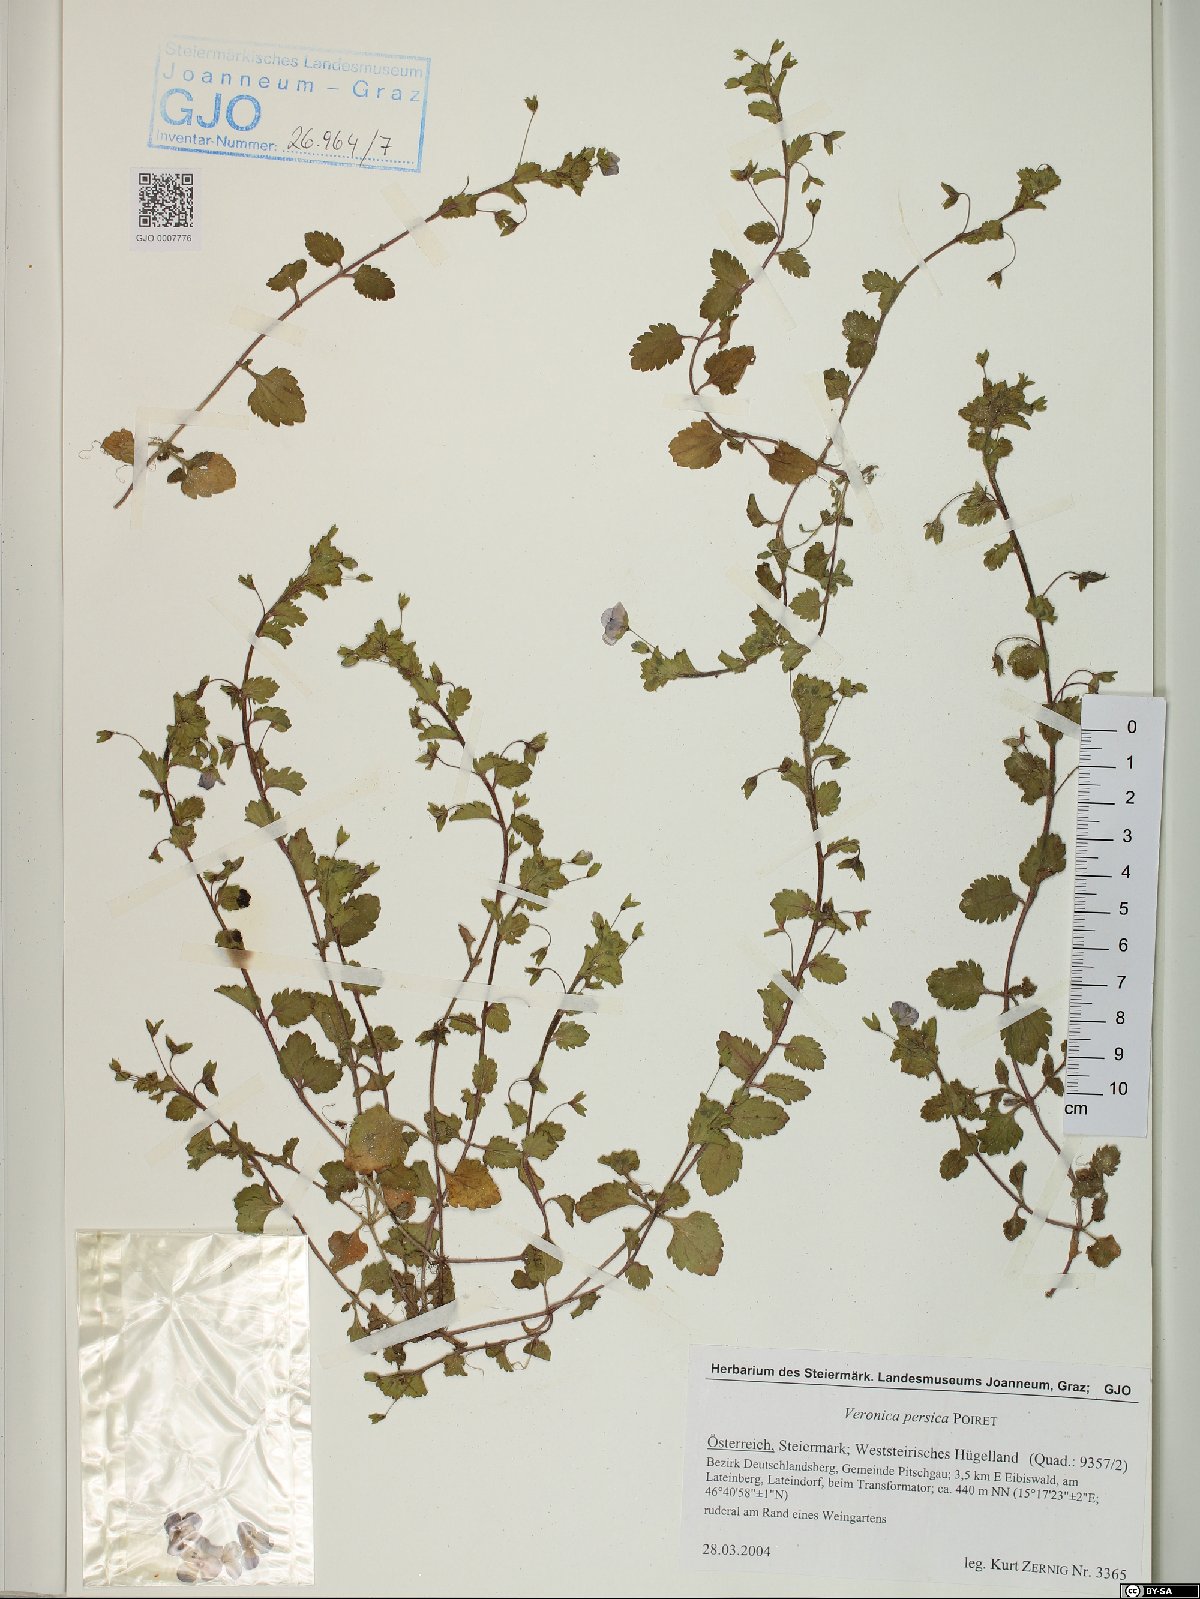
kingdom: Plantae
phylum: Tracheophyta
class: Magnoliopsida
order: Lamiales
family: Plantaginaceae
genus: Veronica
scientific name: Veronica persica
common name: Common field-speedwell
